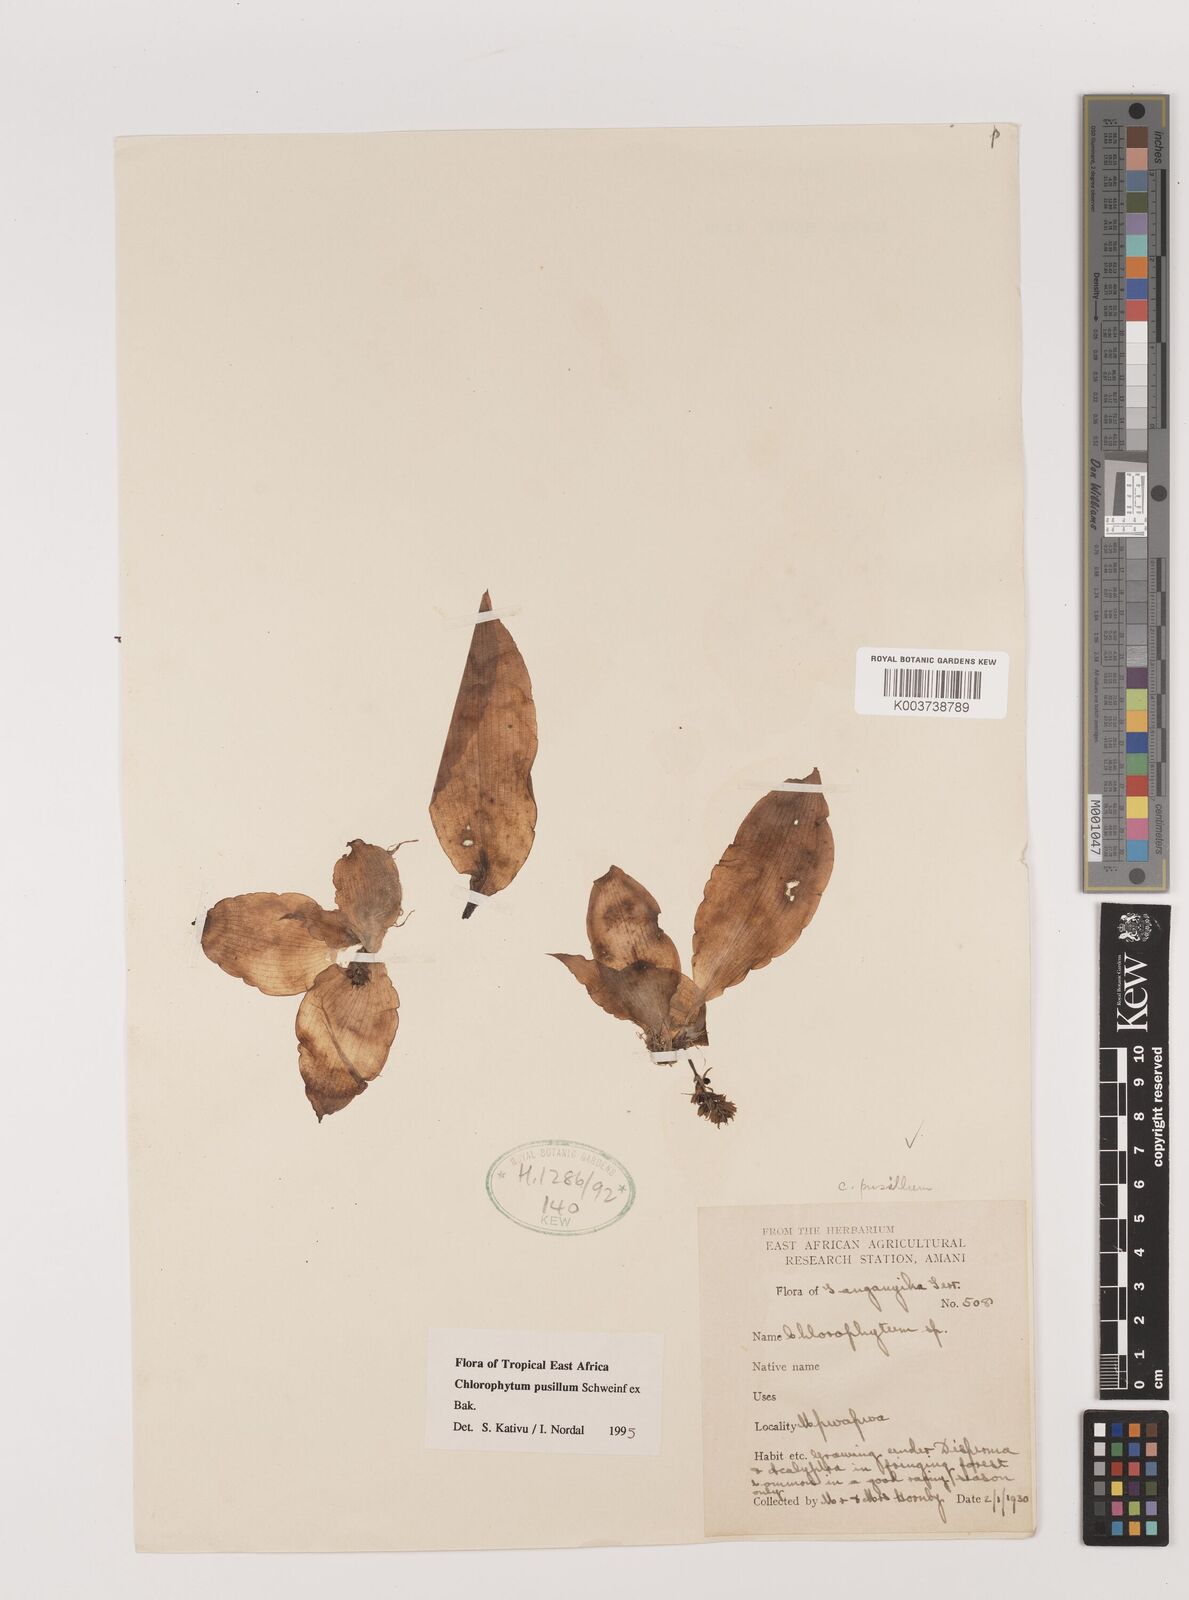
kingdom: Plantae
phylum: Tracheophyta
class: Liliopsida
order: Asparagales
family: Asparagaceae
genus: Chlorophytum
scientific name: Chlorophytum pusillum
